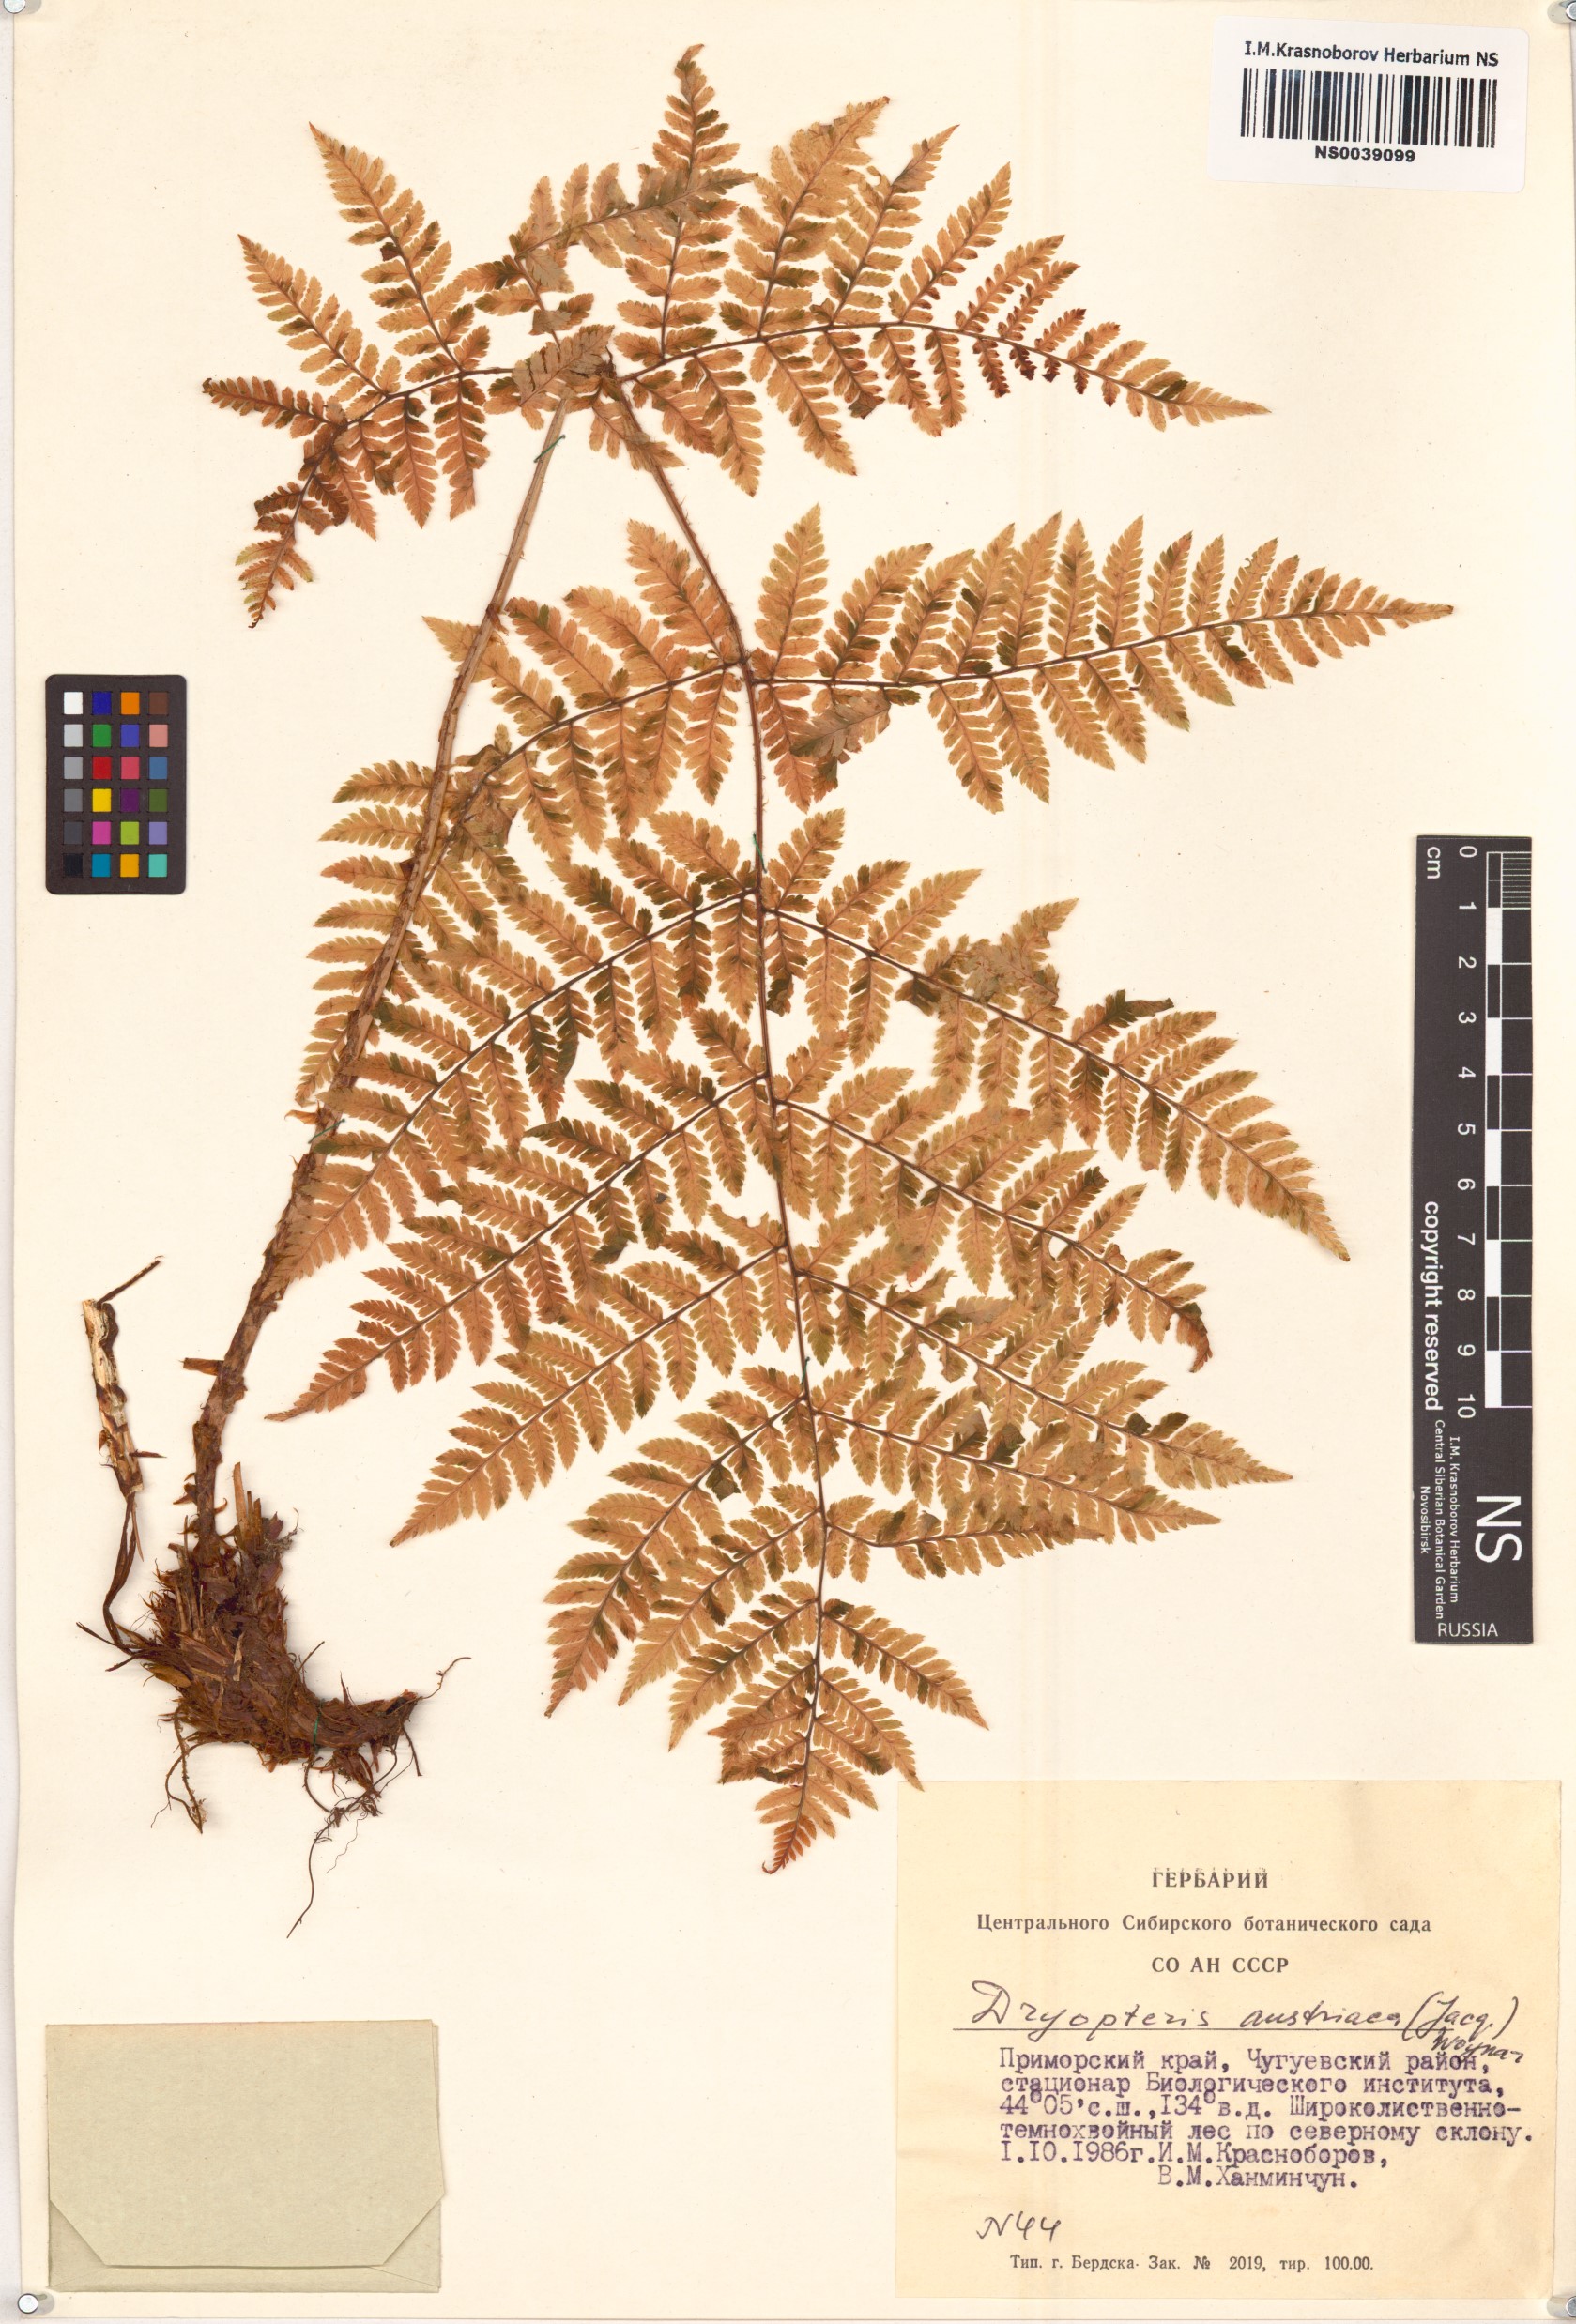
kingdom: Plantae
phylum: Tracheophyta
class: Polypodiopsida
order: Polypodiales
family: Dryopteridaceae
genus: Dryopteris
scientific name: Dryopteris dilatata
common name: Broad buckler-fern
